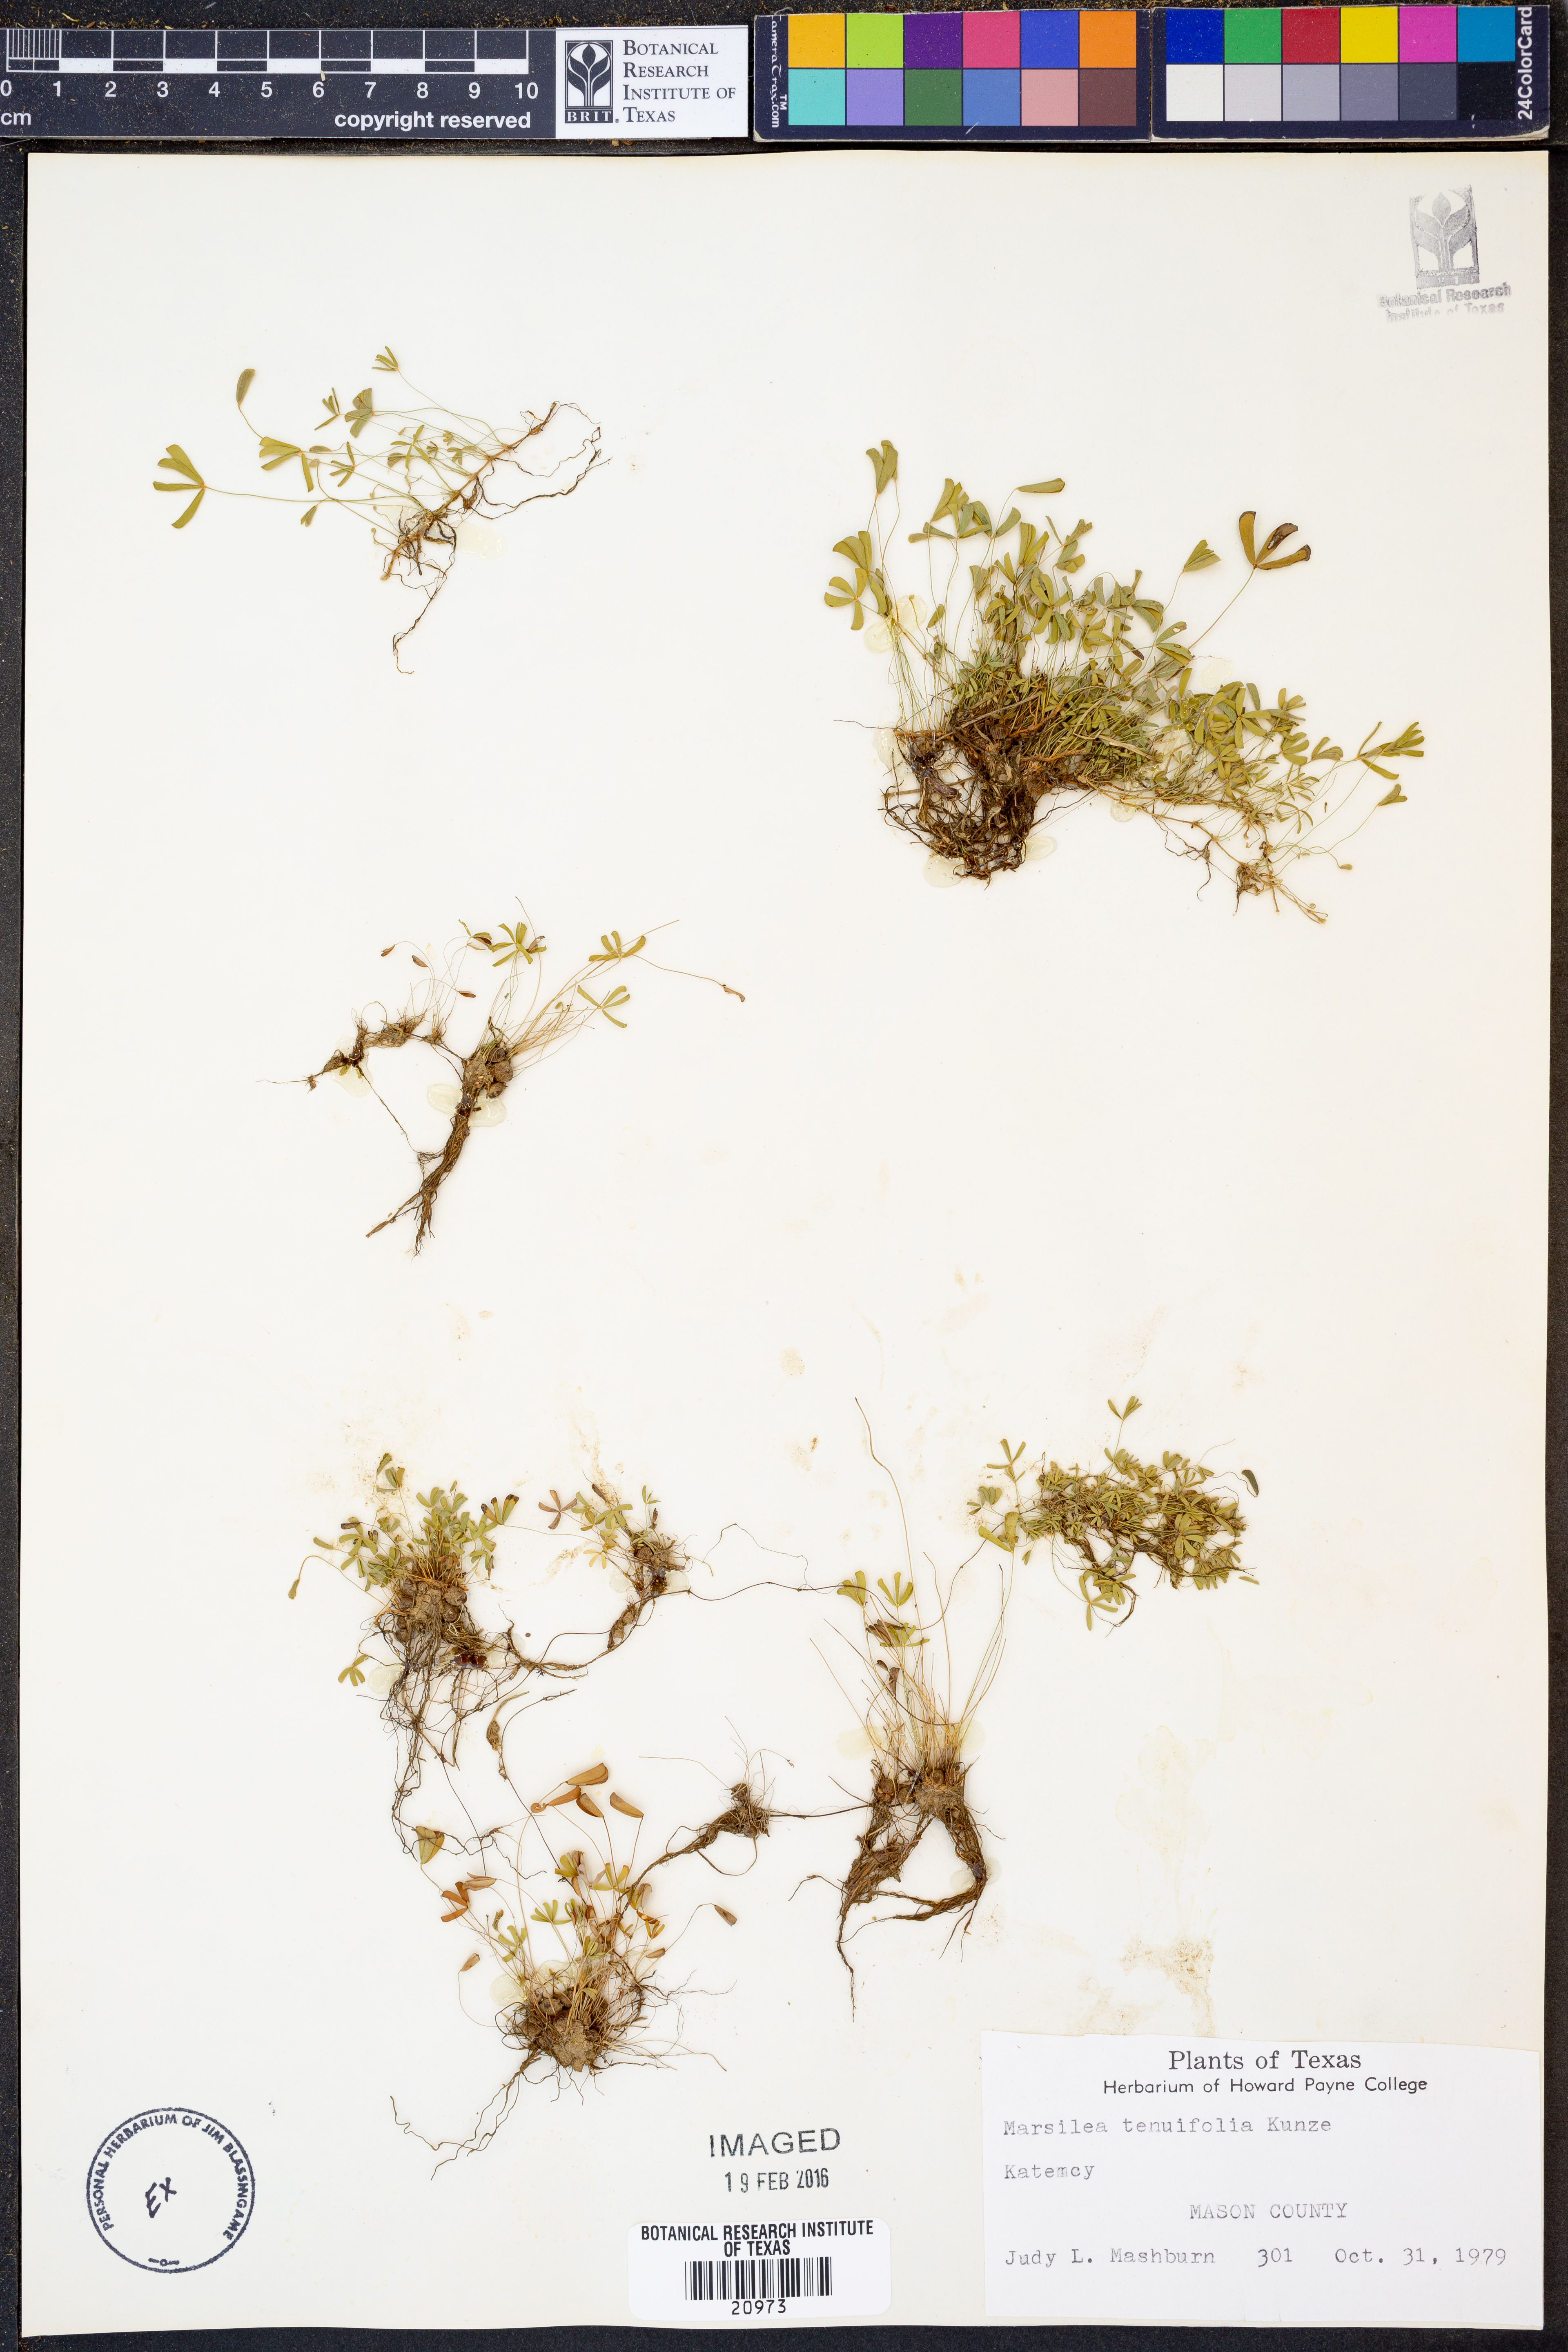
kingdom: Plantae
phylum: Tracheophyta
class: Polypodiopsida
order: Salviniales
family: Marsileaceae
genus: Marsilea
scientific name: Marsilea vestita
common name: Hooked-pepperwort
